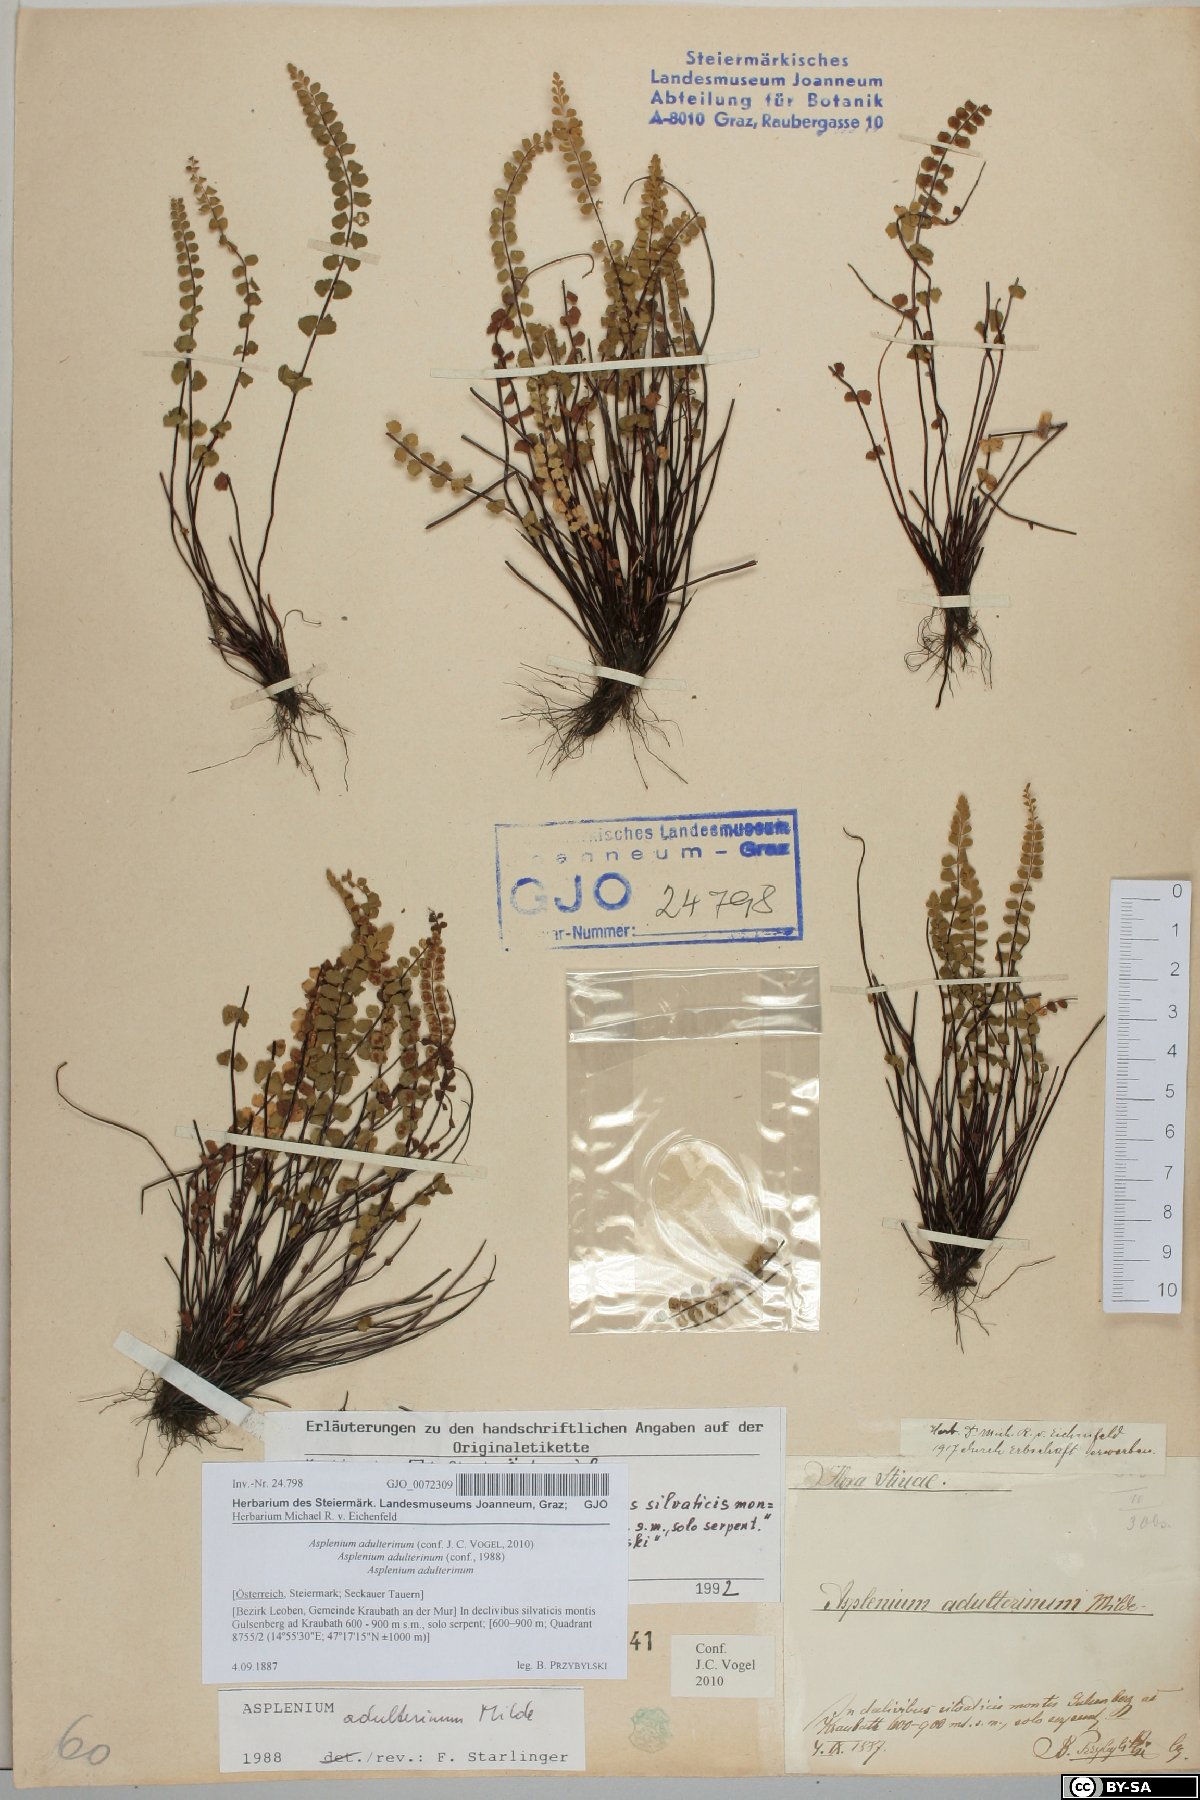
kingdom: Plantae
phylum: Tracheophyta
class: Polypodiopsida
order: Polypodiales
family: Aspleniaceae
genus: Asplenium
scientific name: Asplenium adulterinum
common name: Adulterated spleenwort
